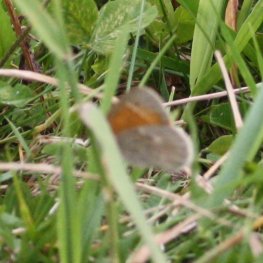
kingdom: Animalia
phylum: Arthropoda
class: Insecta
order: Lepidoptera
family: Nymphalidae
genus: Coenonympha
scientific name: Coenonympha tullia
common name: Large Heath
